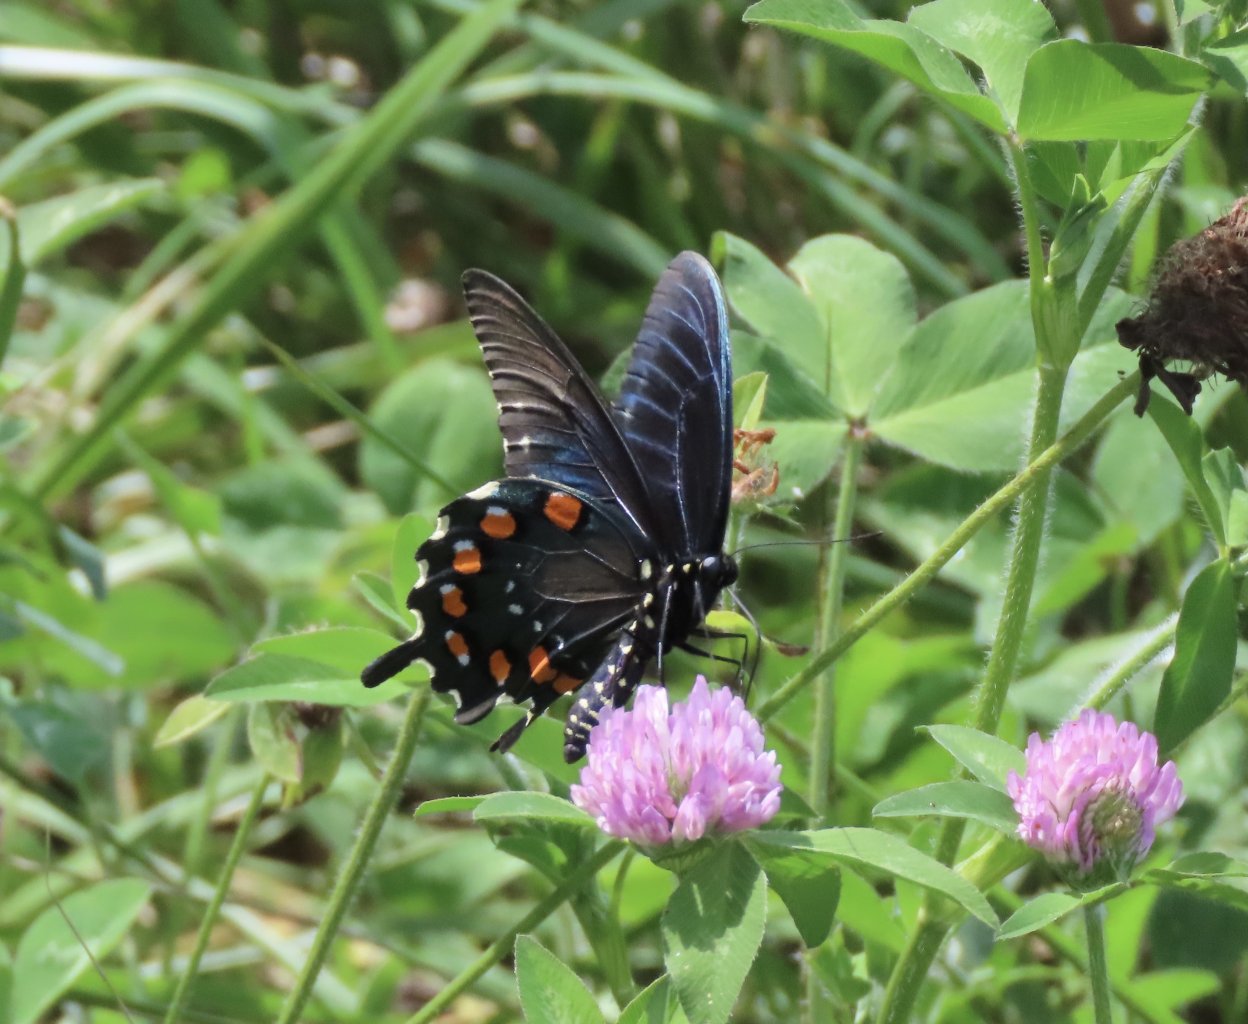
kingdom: Animalia
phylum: Arthropoda
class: Insecta
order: Lepidoptera
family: Papilionidae
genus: Battus
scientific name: Battus philenor
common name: Pipevine Swallowtail
